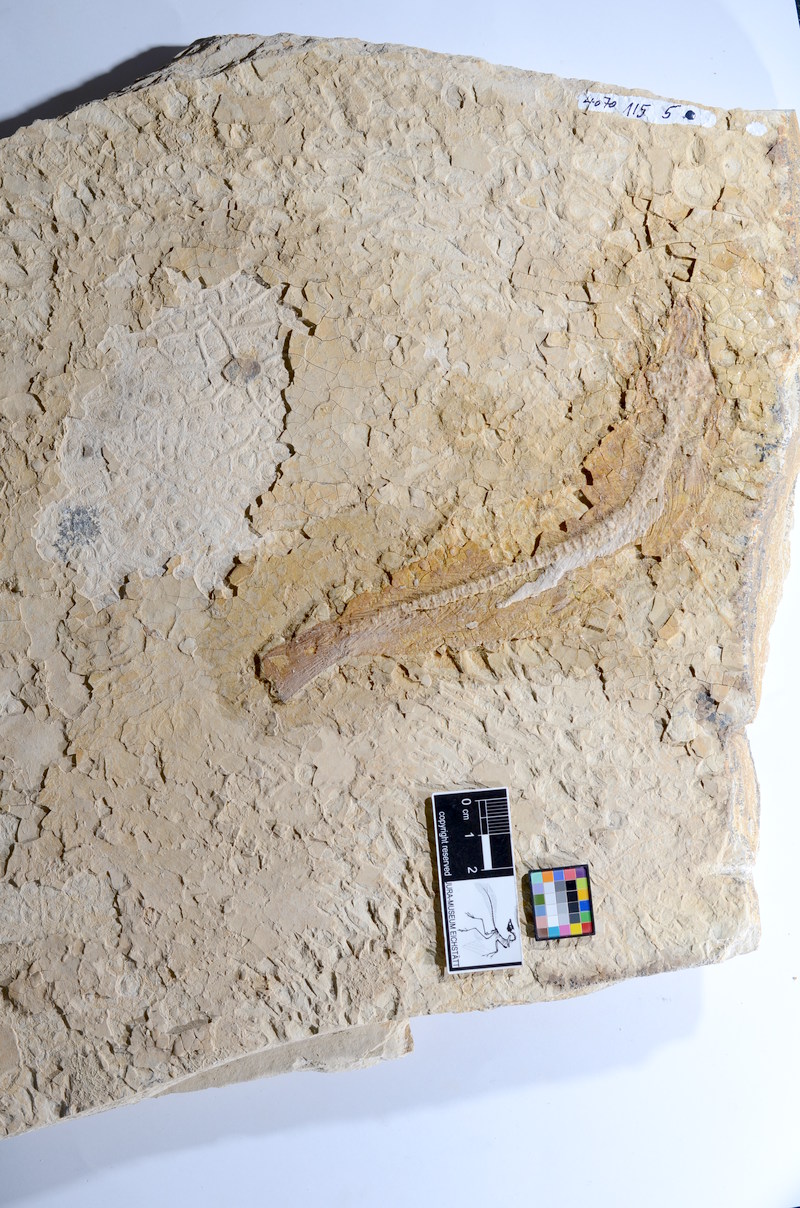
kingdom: Animalia
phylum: Chordata
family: Ascalaboidae
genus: Tharsis
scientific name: Tharsis dubius
